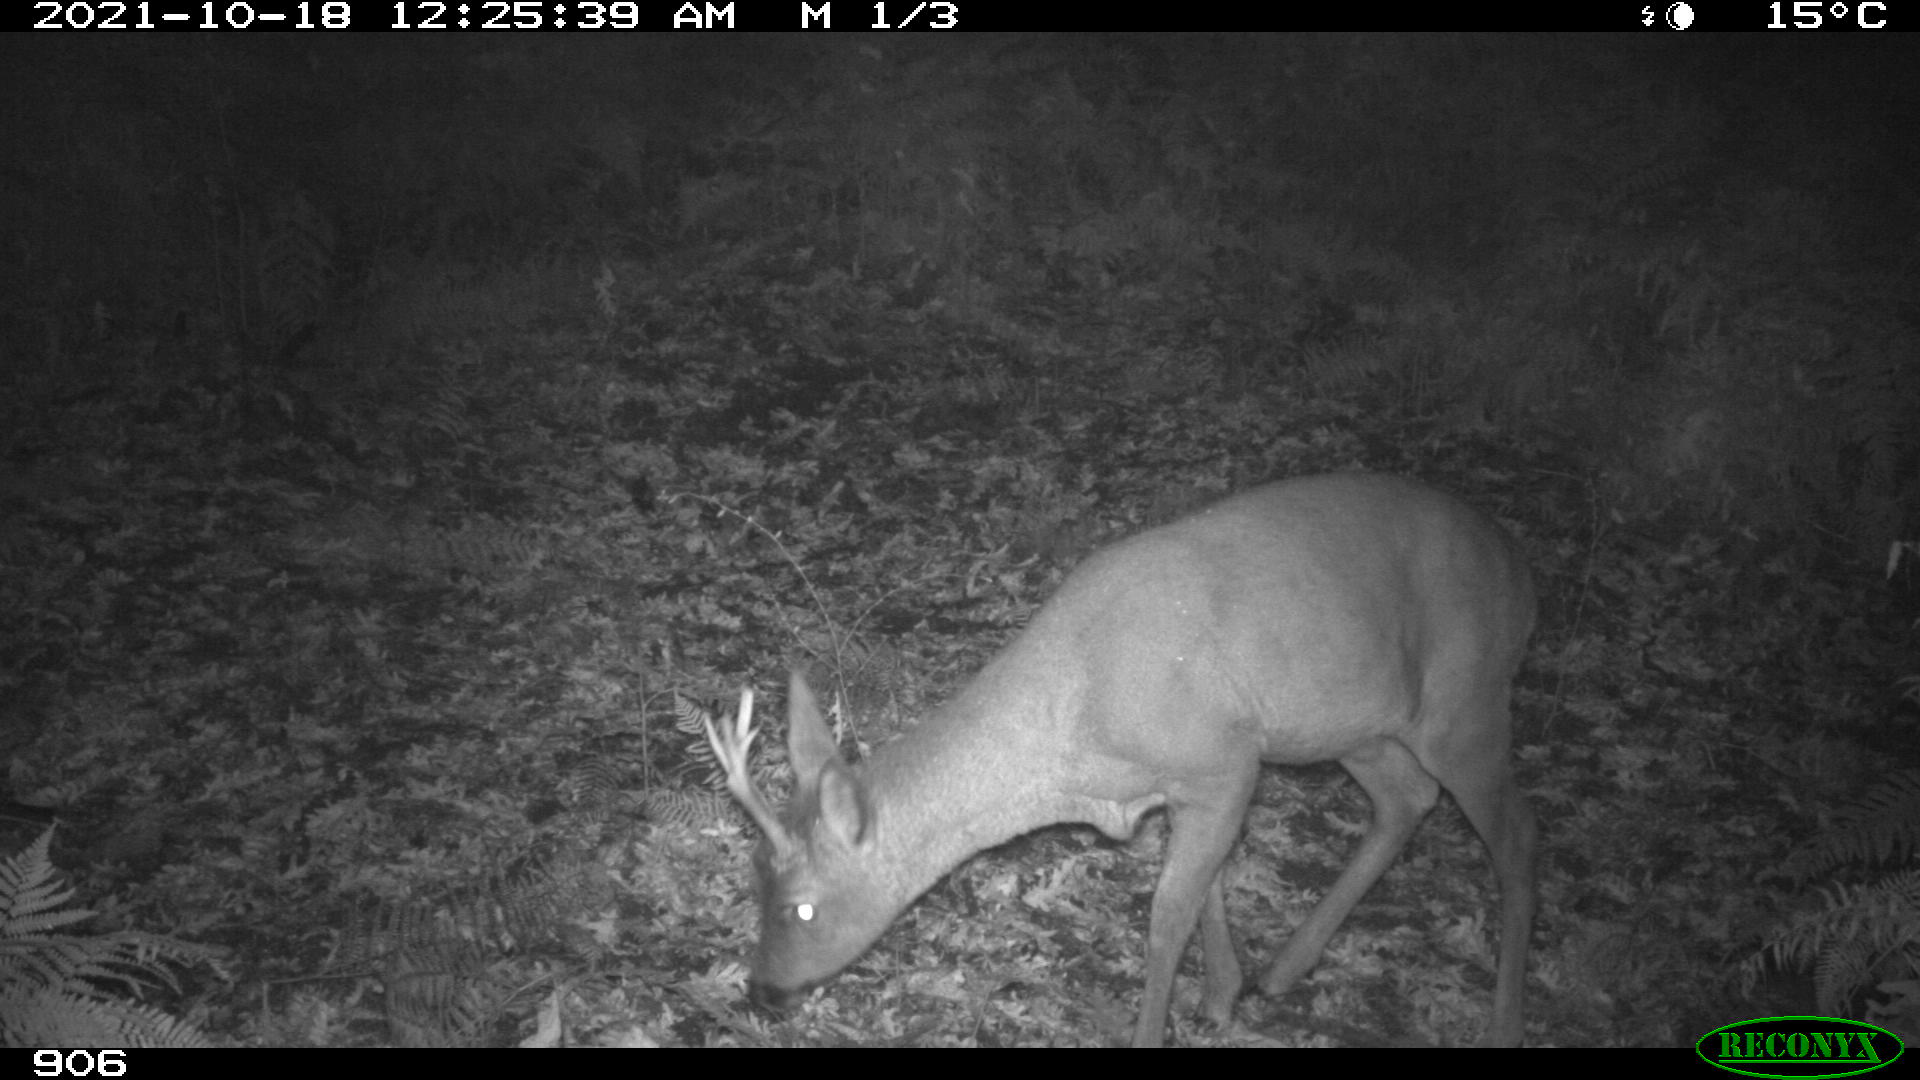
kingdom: Animalia
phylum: Chordata
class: Mammalia
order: Artiodactyla
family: Cervidae
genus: Capreolus
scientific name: Capreolus capreolus
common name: Western roe deer
